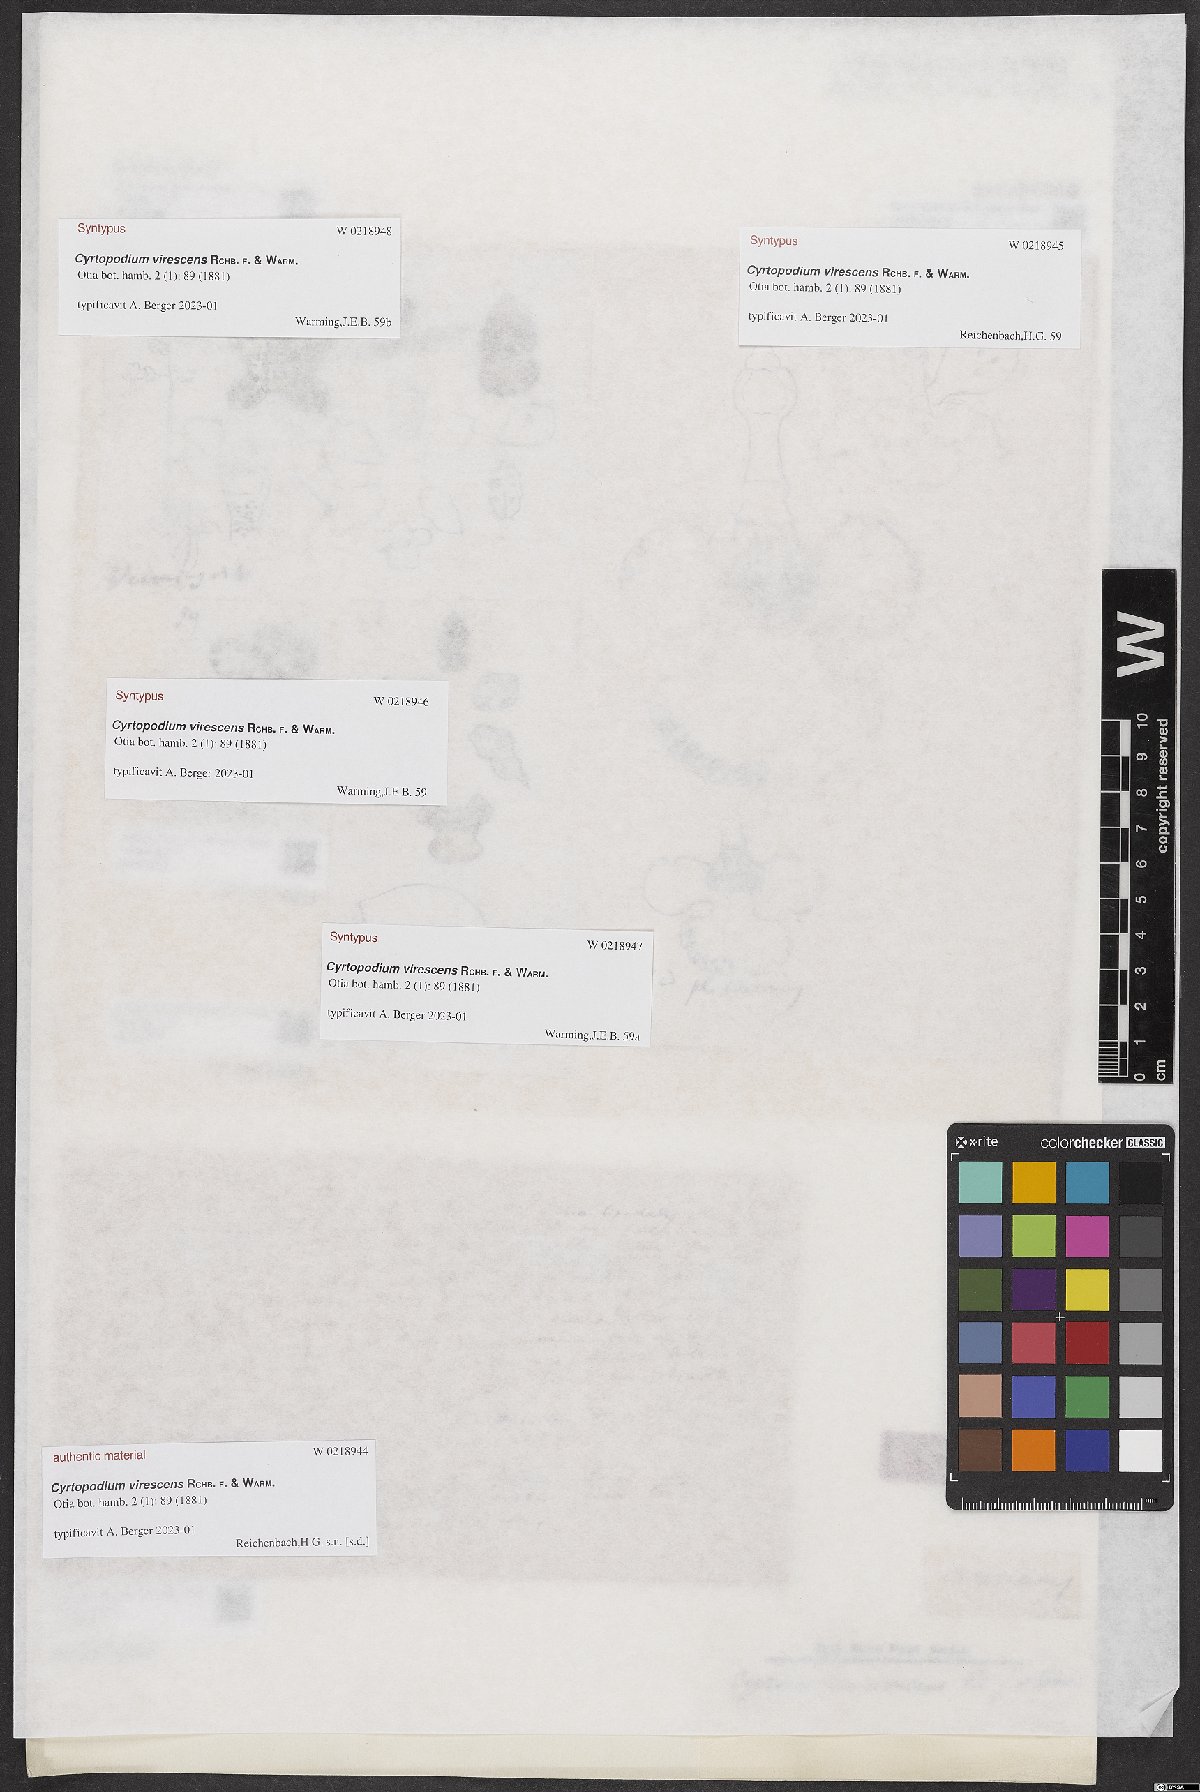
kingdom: Plantae
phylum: Tracheophyta
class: Liliopsida
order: Asparagales
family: Orchidaceae
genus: Cyrtopodium
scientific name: Cyrtopodium virescens
